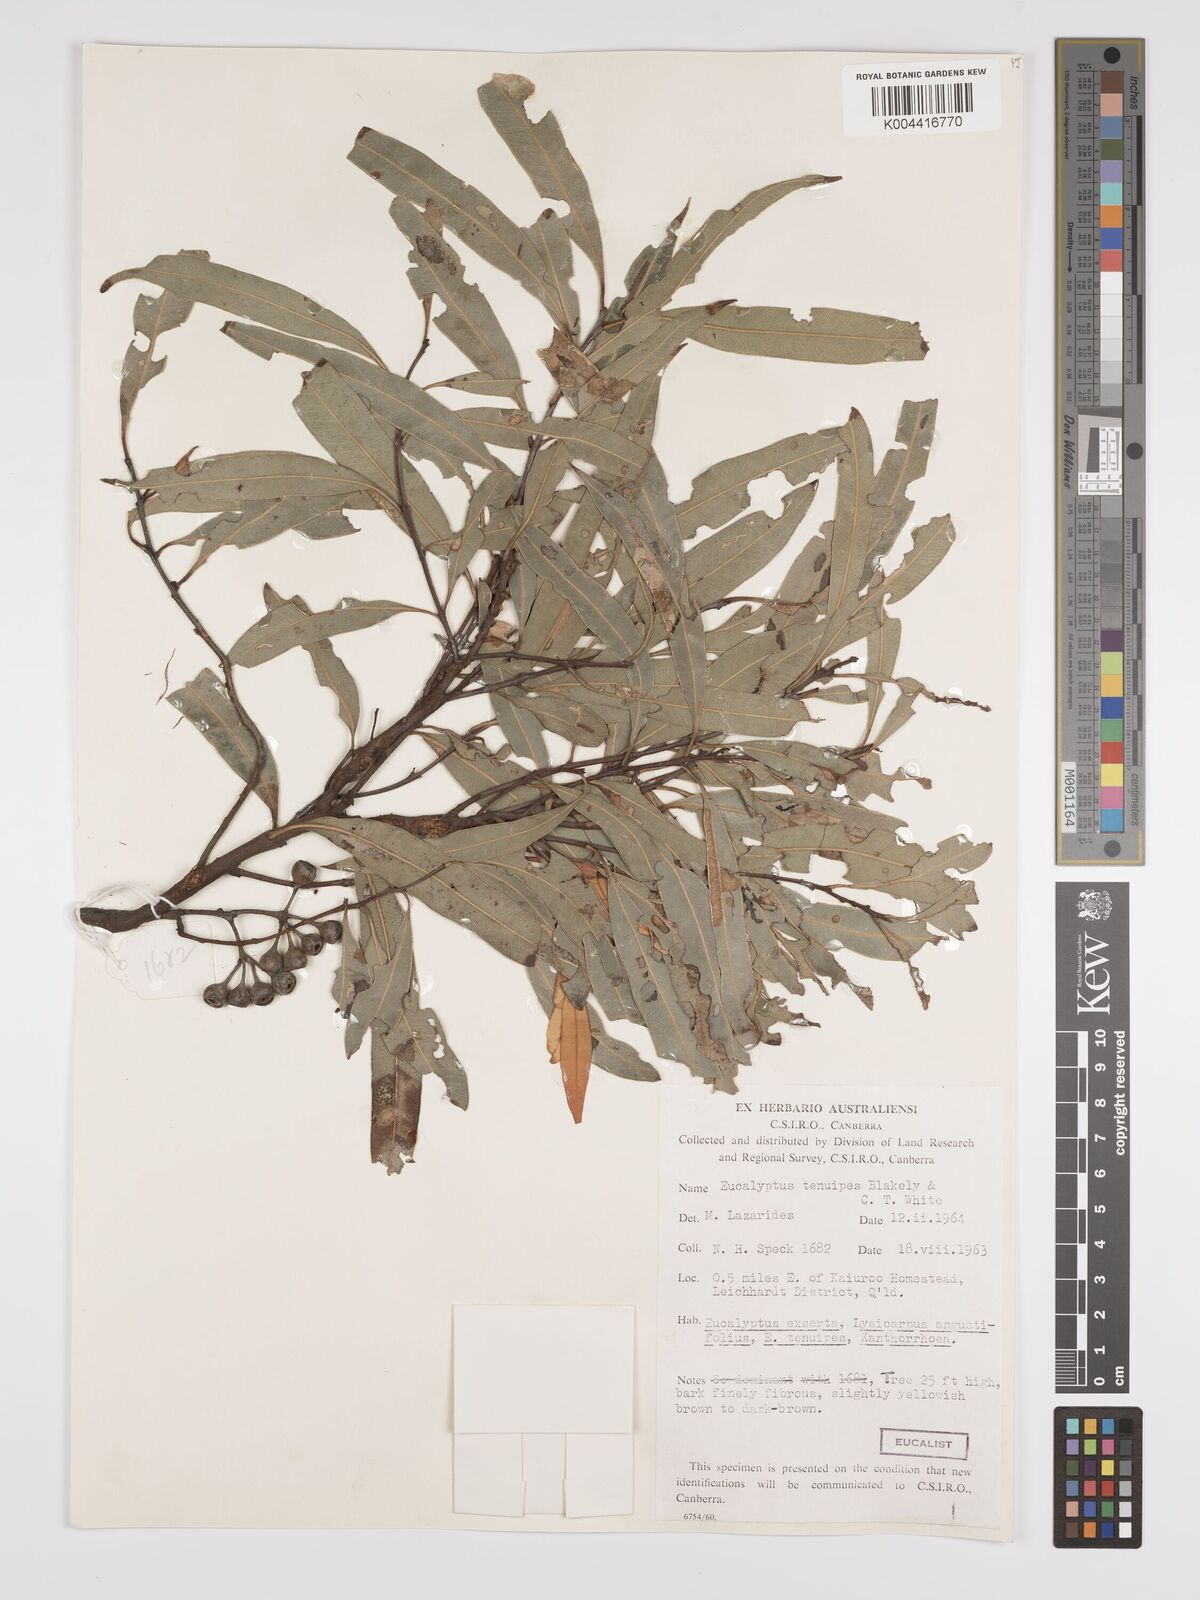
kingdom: Plantae
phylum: Tracheophyta
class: Magnoliopsida
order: Myrtales
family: Myrtaceae
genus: Eucalyptus
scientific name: Eucalyptus tenuipes
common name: Narrow-leaved white mahogany
